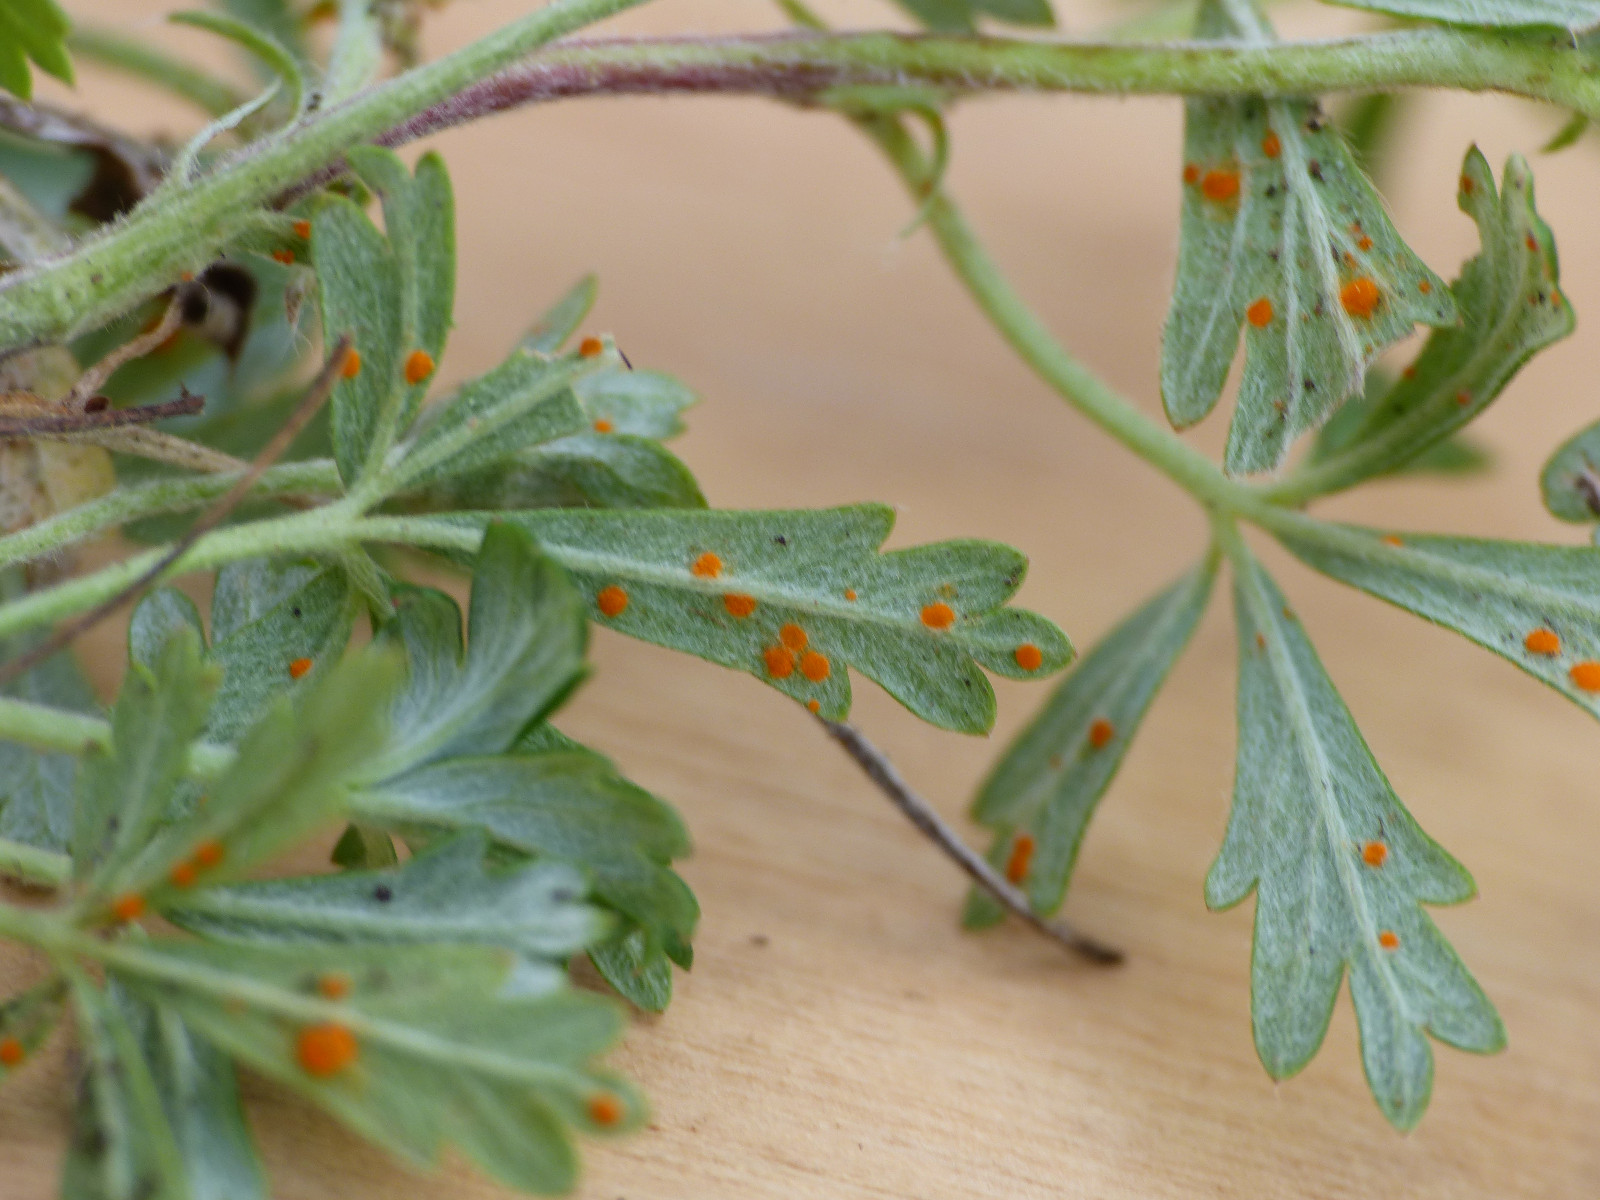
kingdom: Fungi
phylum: Basidiomycota
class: Pucciniomycetes
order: Pucciniales
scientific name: Pucciniales
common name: rustsvampeordenen
